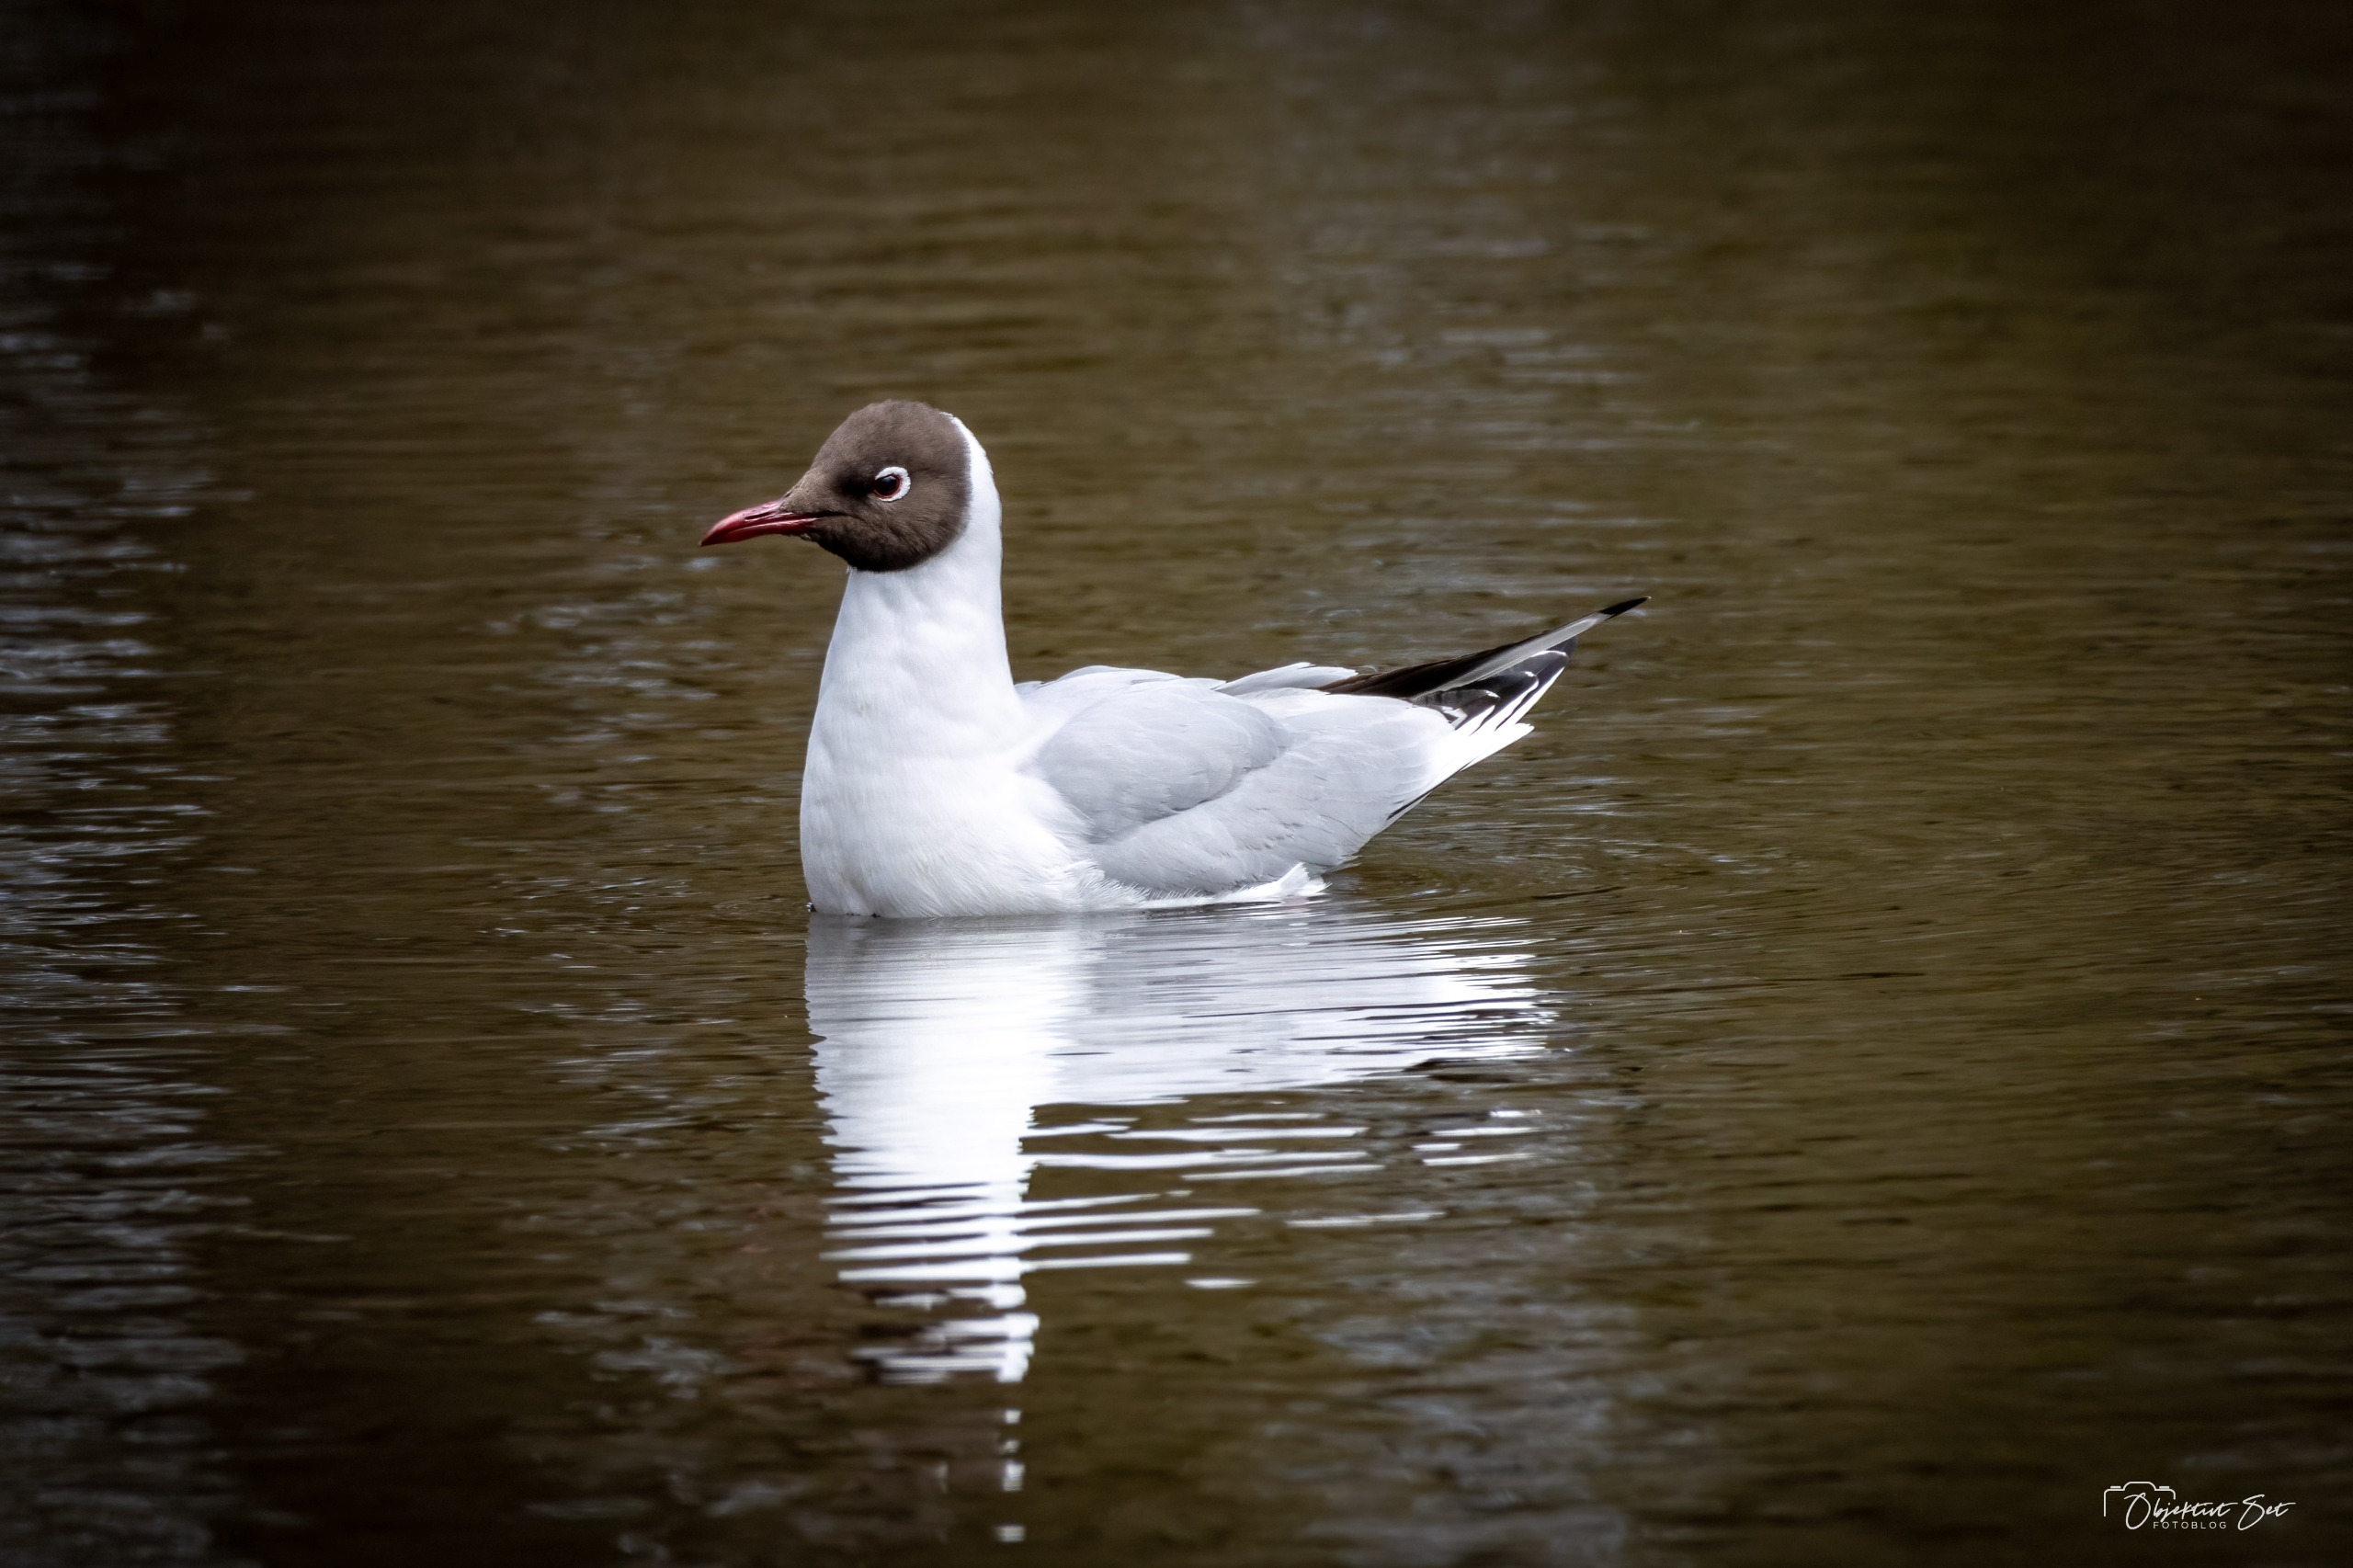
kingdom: Animalia
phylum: Chordata
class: Aves
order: Charadriiformes
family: Laridae
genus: Chroicocephalus
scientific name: Chroicocephalus ridibundus
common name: Hættemåge
